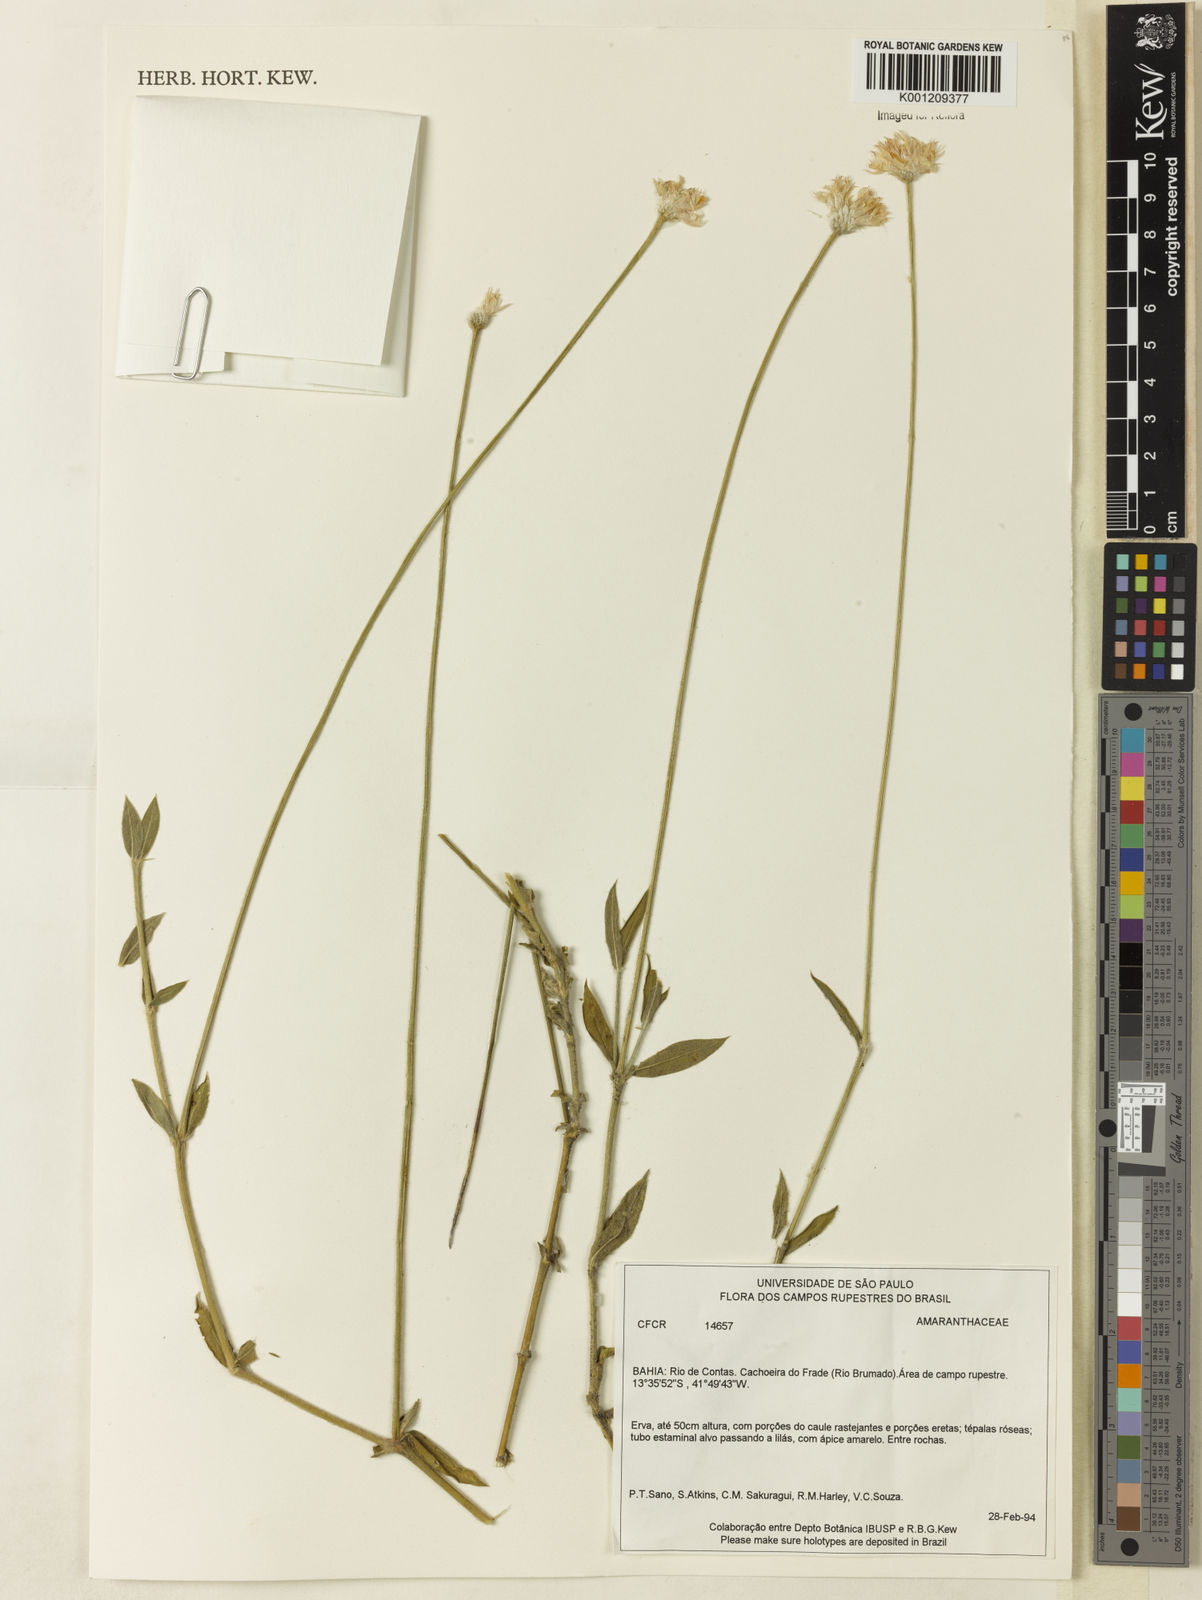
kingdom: Plantae
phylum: Tracheophyta
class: Magnoliopsida
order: Caryophyllales
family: Amaranthaceae
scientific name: Amaranthaceae
